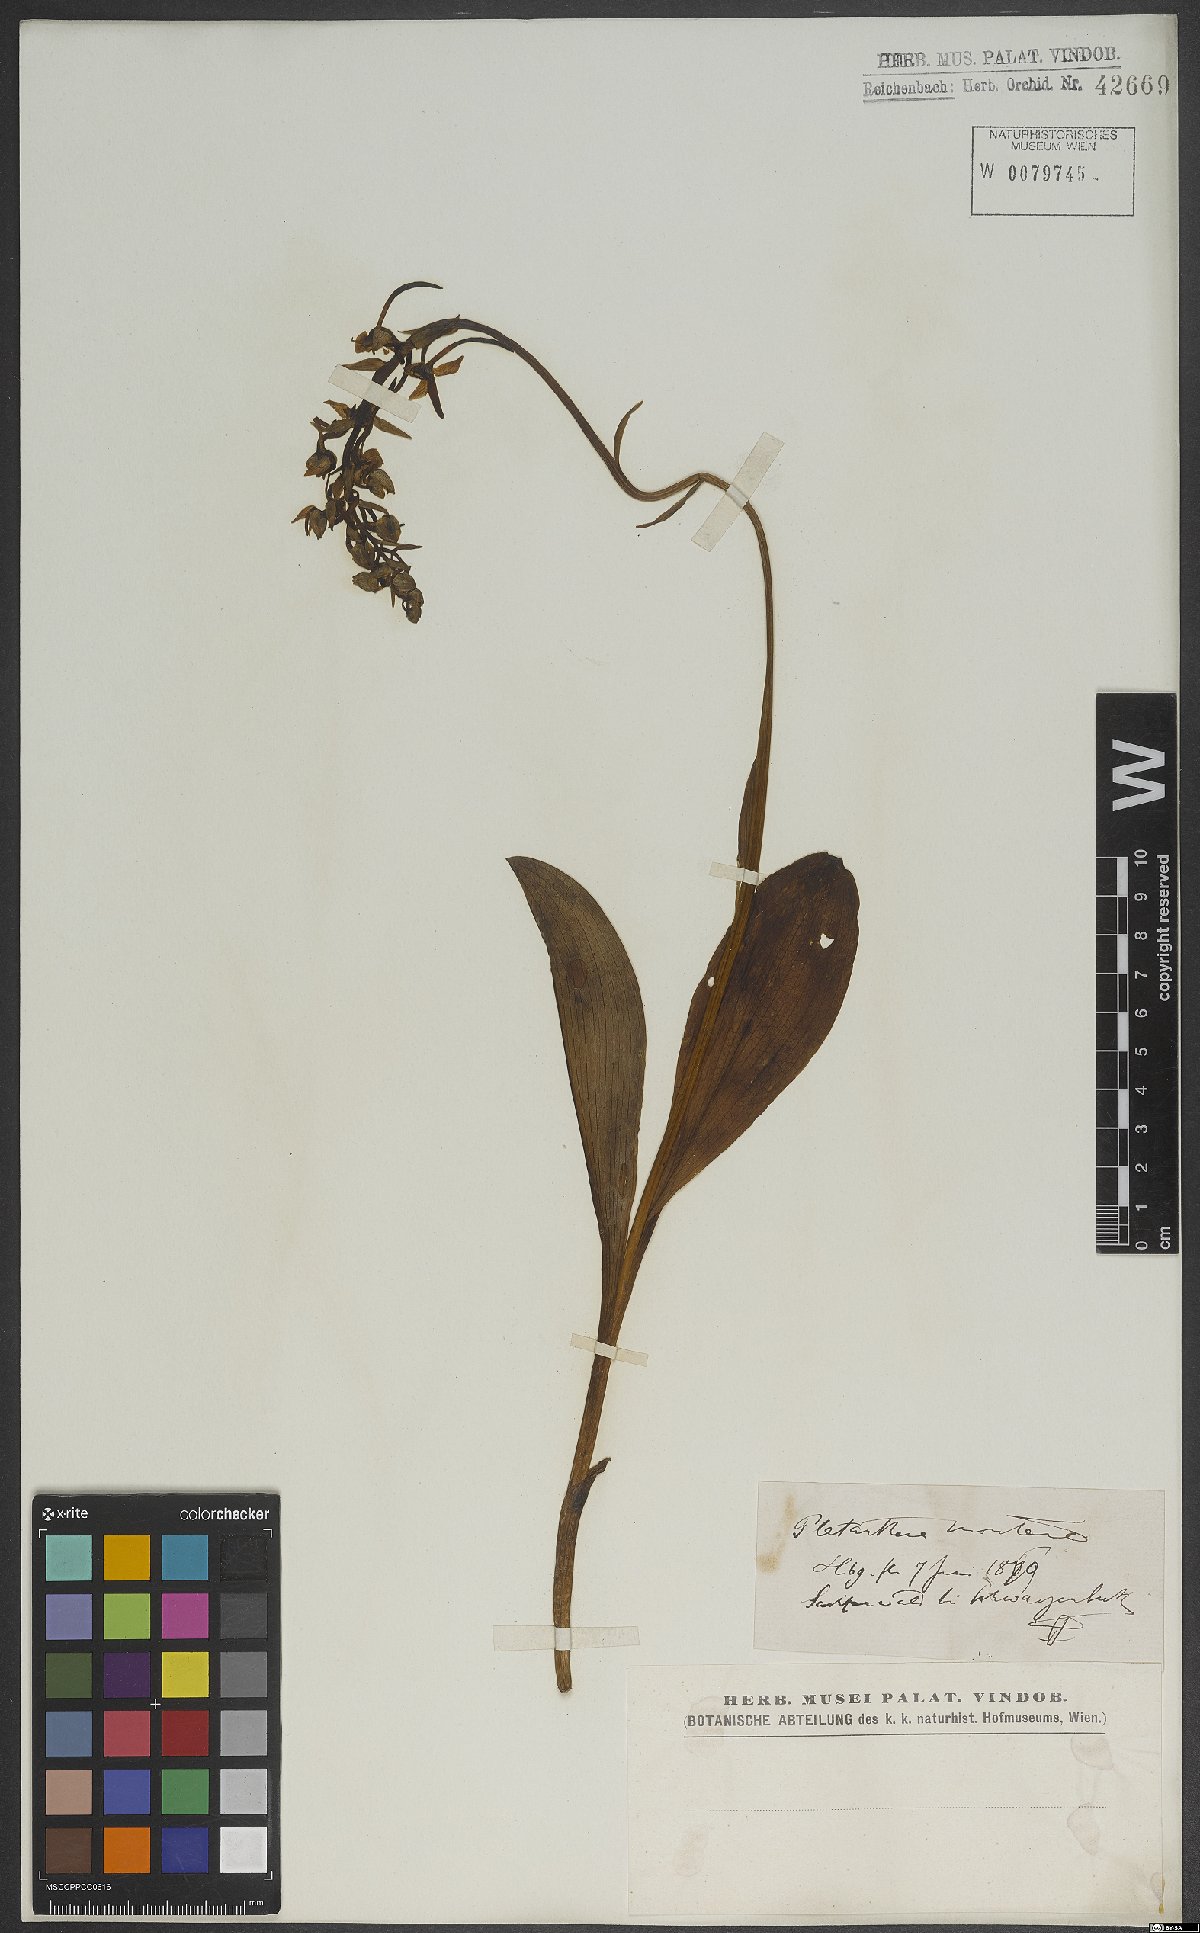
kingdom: Plantae
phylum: Tracheophyta
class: Liliopsida
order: Asparagales
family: Orchidaceae
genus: Platanthera
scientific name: Platanthera chlorantha
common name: Greater butterfly-orchid
